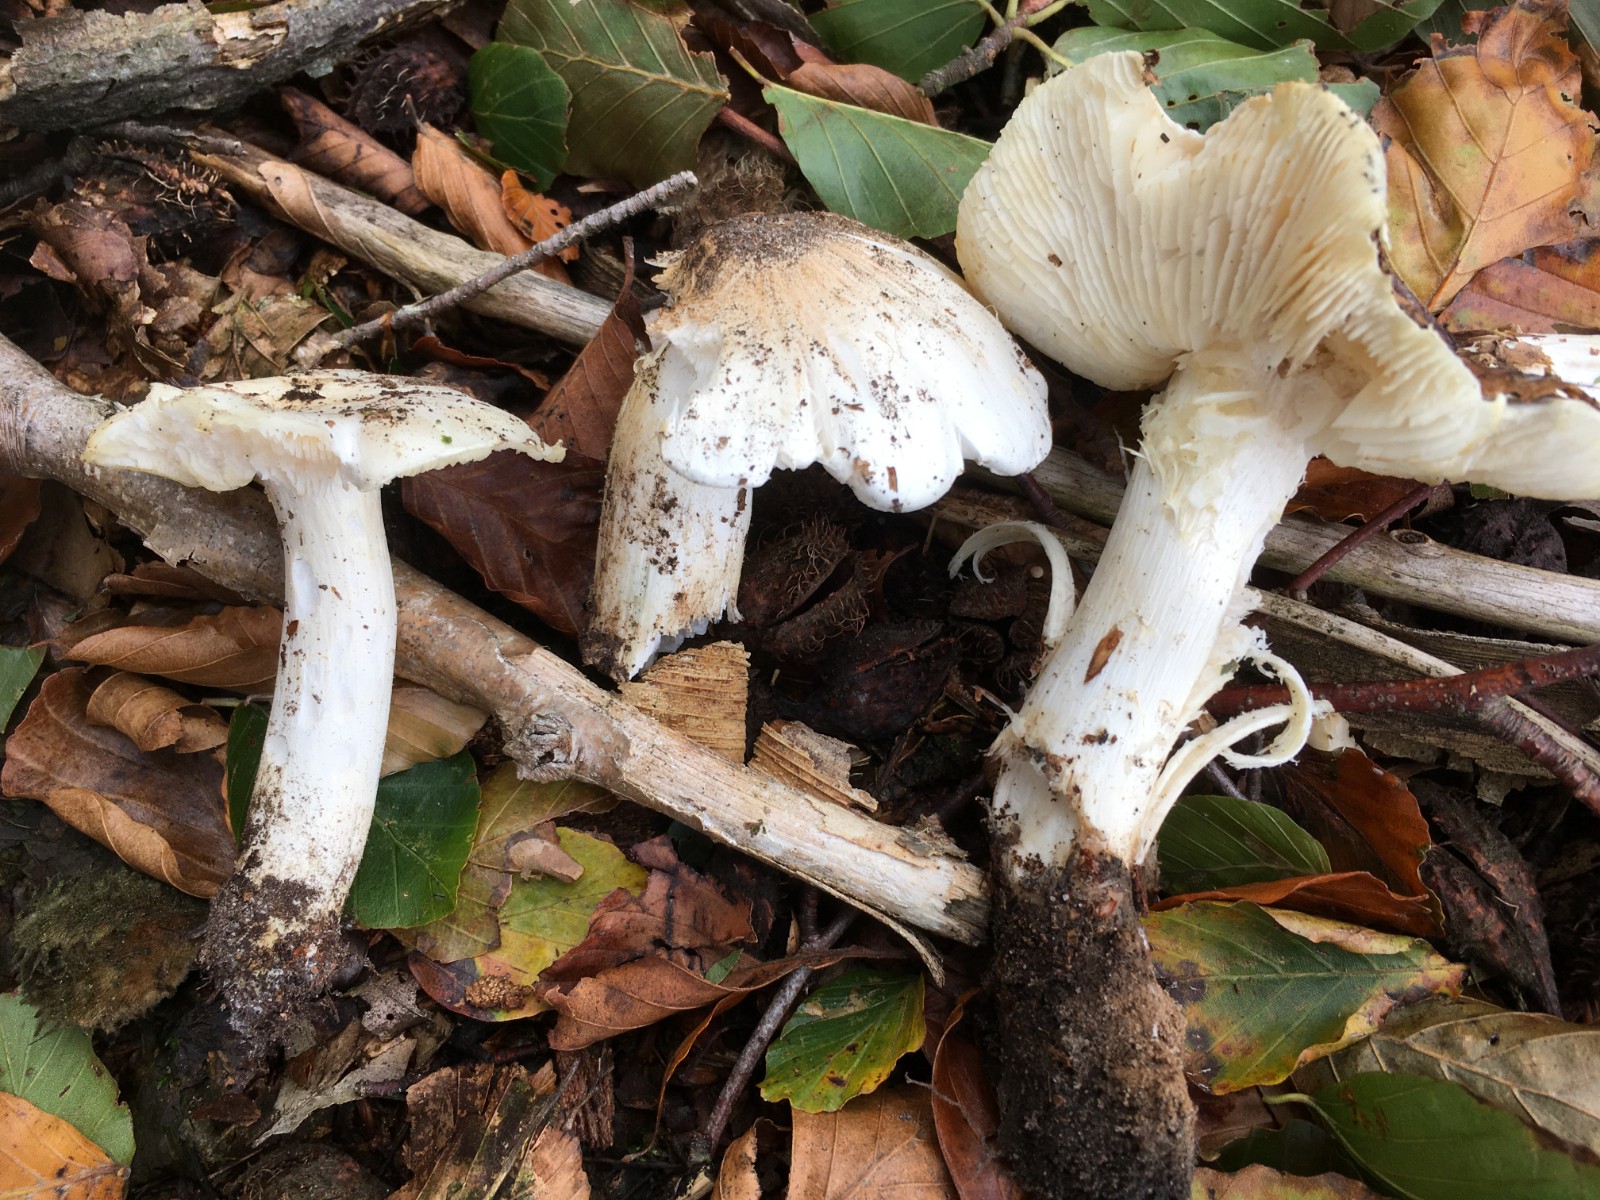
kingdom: Fungi
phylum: Basidiomycota
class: Agaricomycetes
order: Agaricales
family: Tricholomataceae
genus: Tricholoma
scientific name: Tricholoma columbetta
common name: silke-ridderhat
